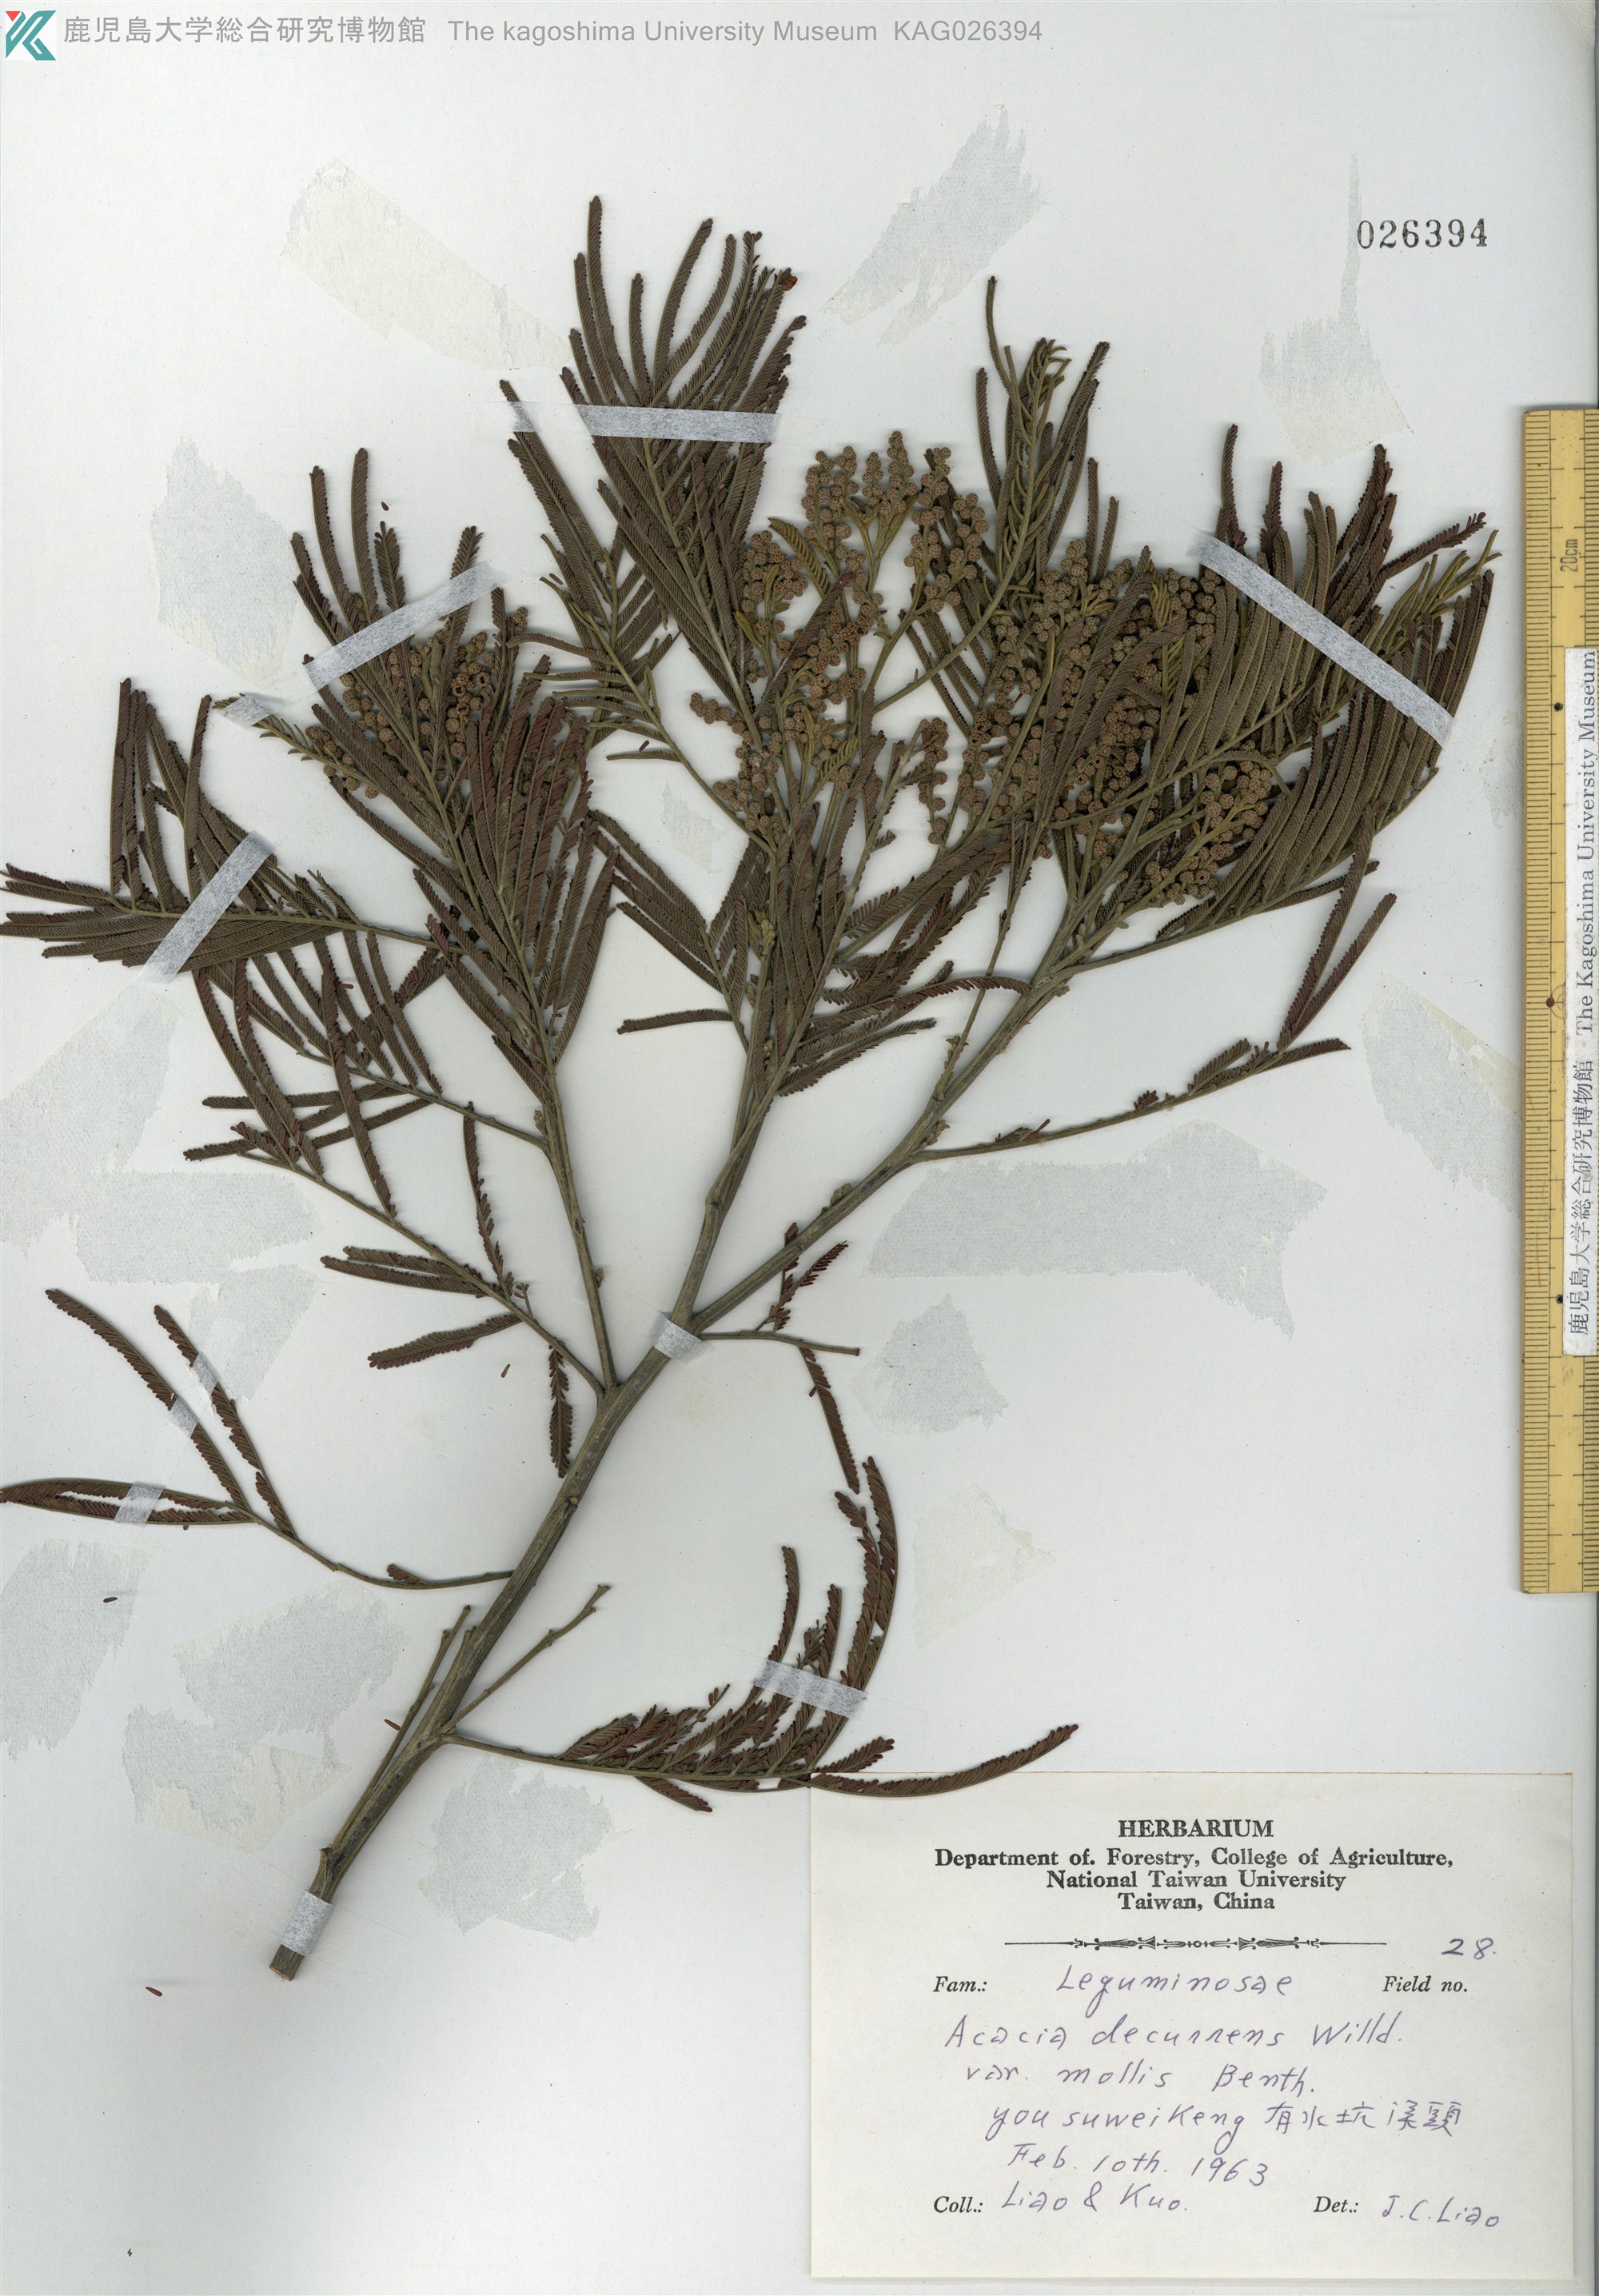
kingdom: Plantae
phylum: Tracheophyta
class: Magnoliopsida
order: Fabales
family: Fabaceae
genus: Acacia
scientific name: Acacia dealbata
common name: Silver wattle
